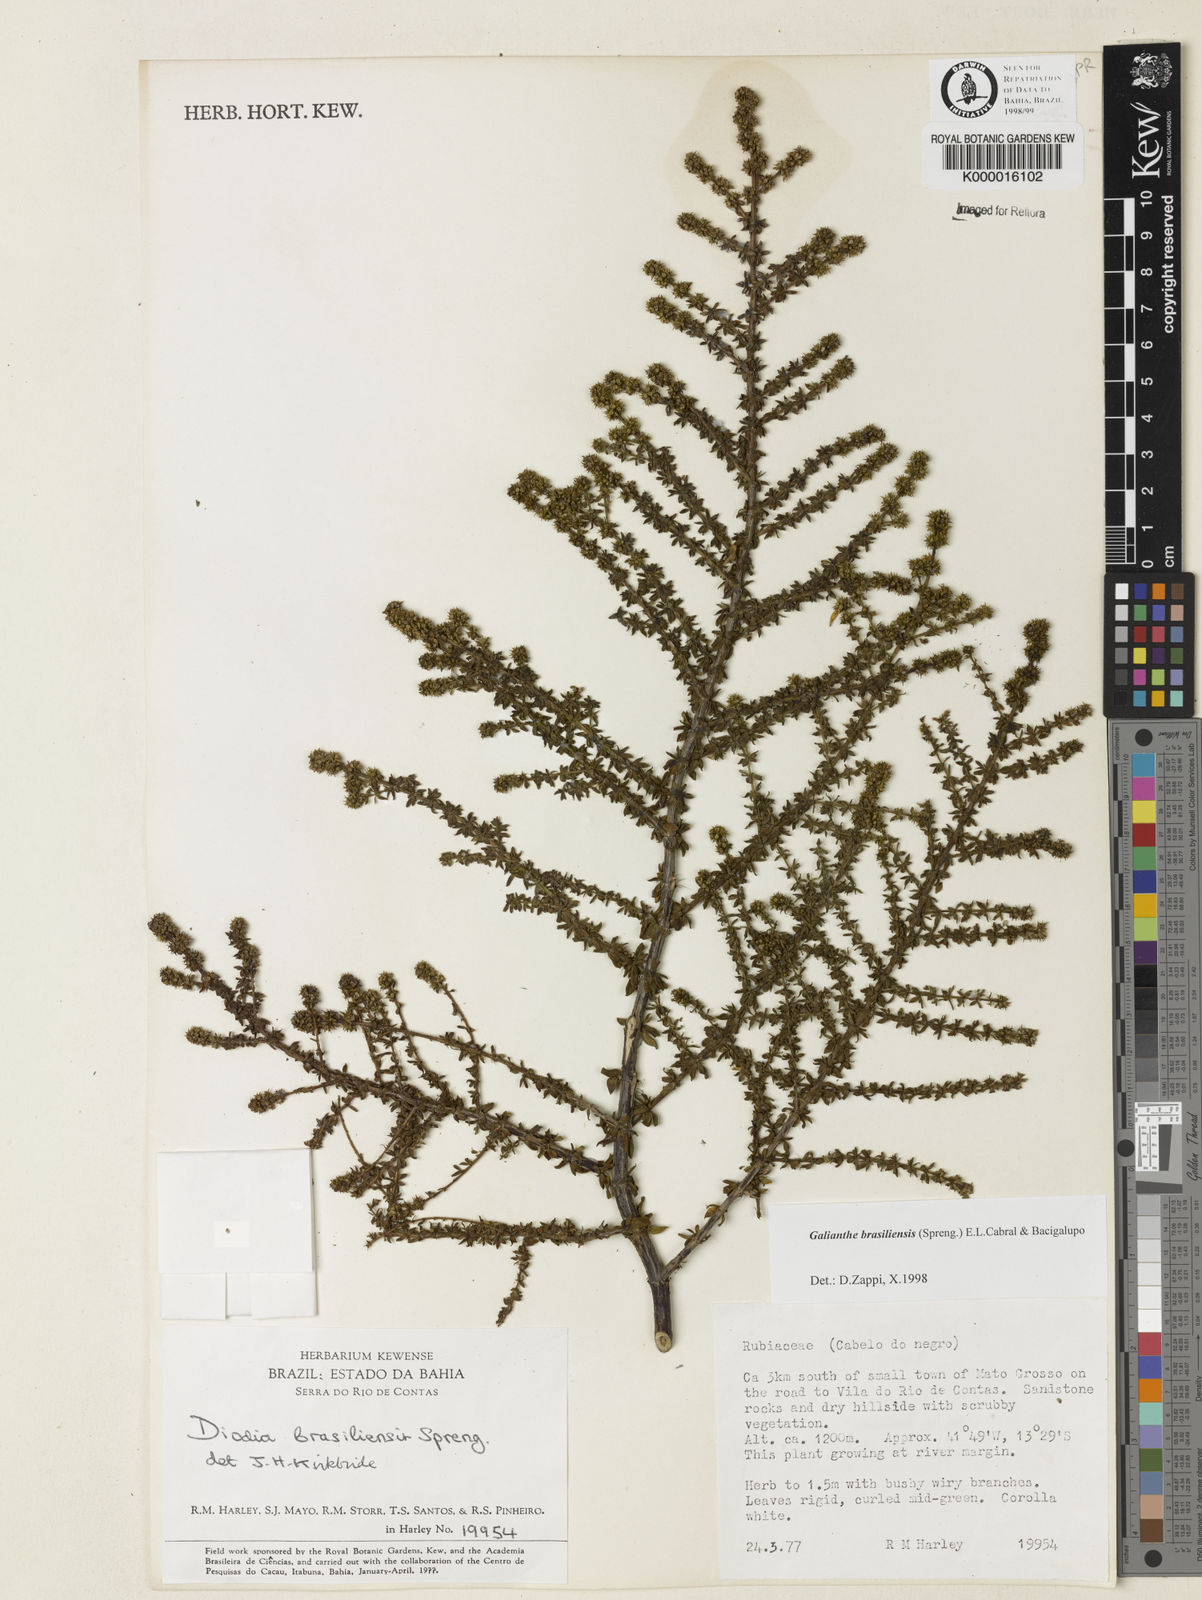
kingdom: Plantae
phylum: Tracheophyta
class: Magnoliopsida
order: Gentianales
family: Rubiaceae
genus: Galianthe
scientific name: Galianthe brasiliensis
